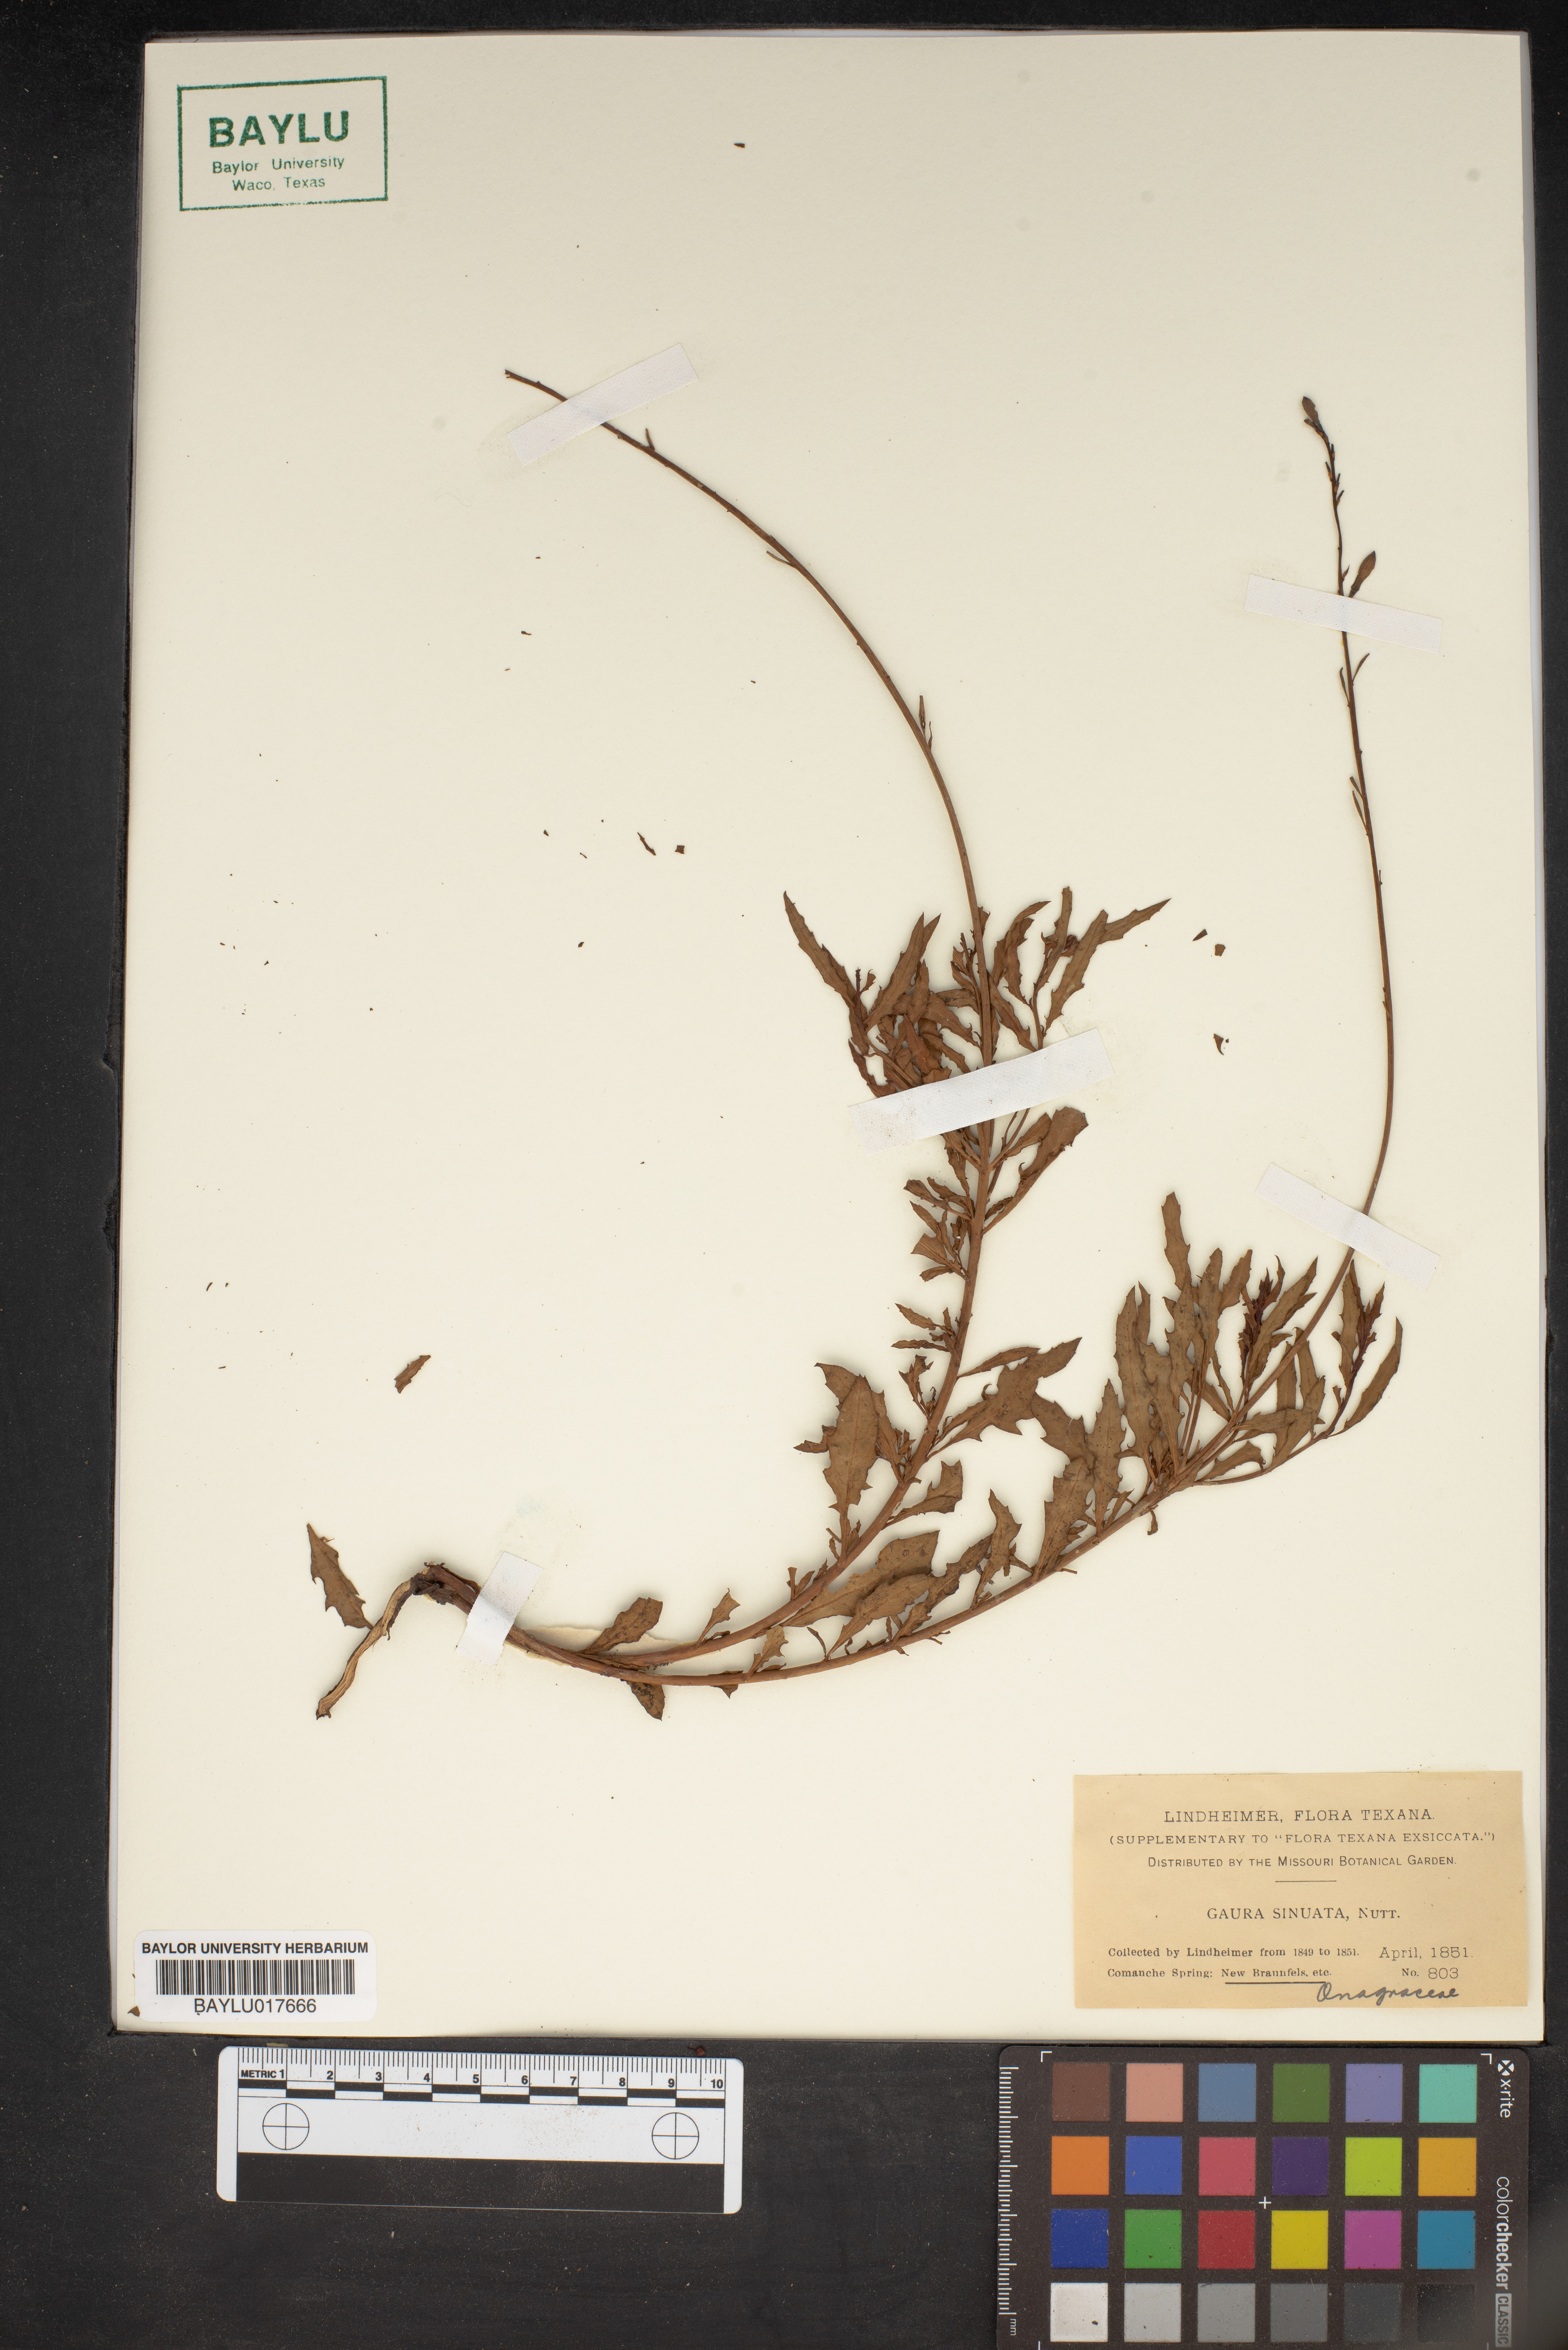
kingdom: Plantae
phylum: Tracheophyta
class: Magnoliopsida
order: Myrtales
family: Onagraceae
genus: Oenothera
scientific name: Oenothera sinuosa
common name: Wavyleaf beeblossom
